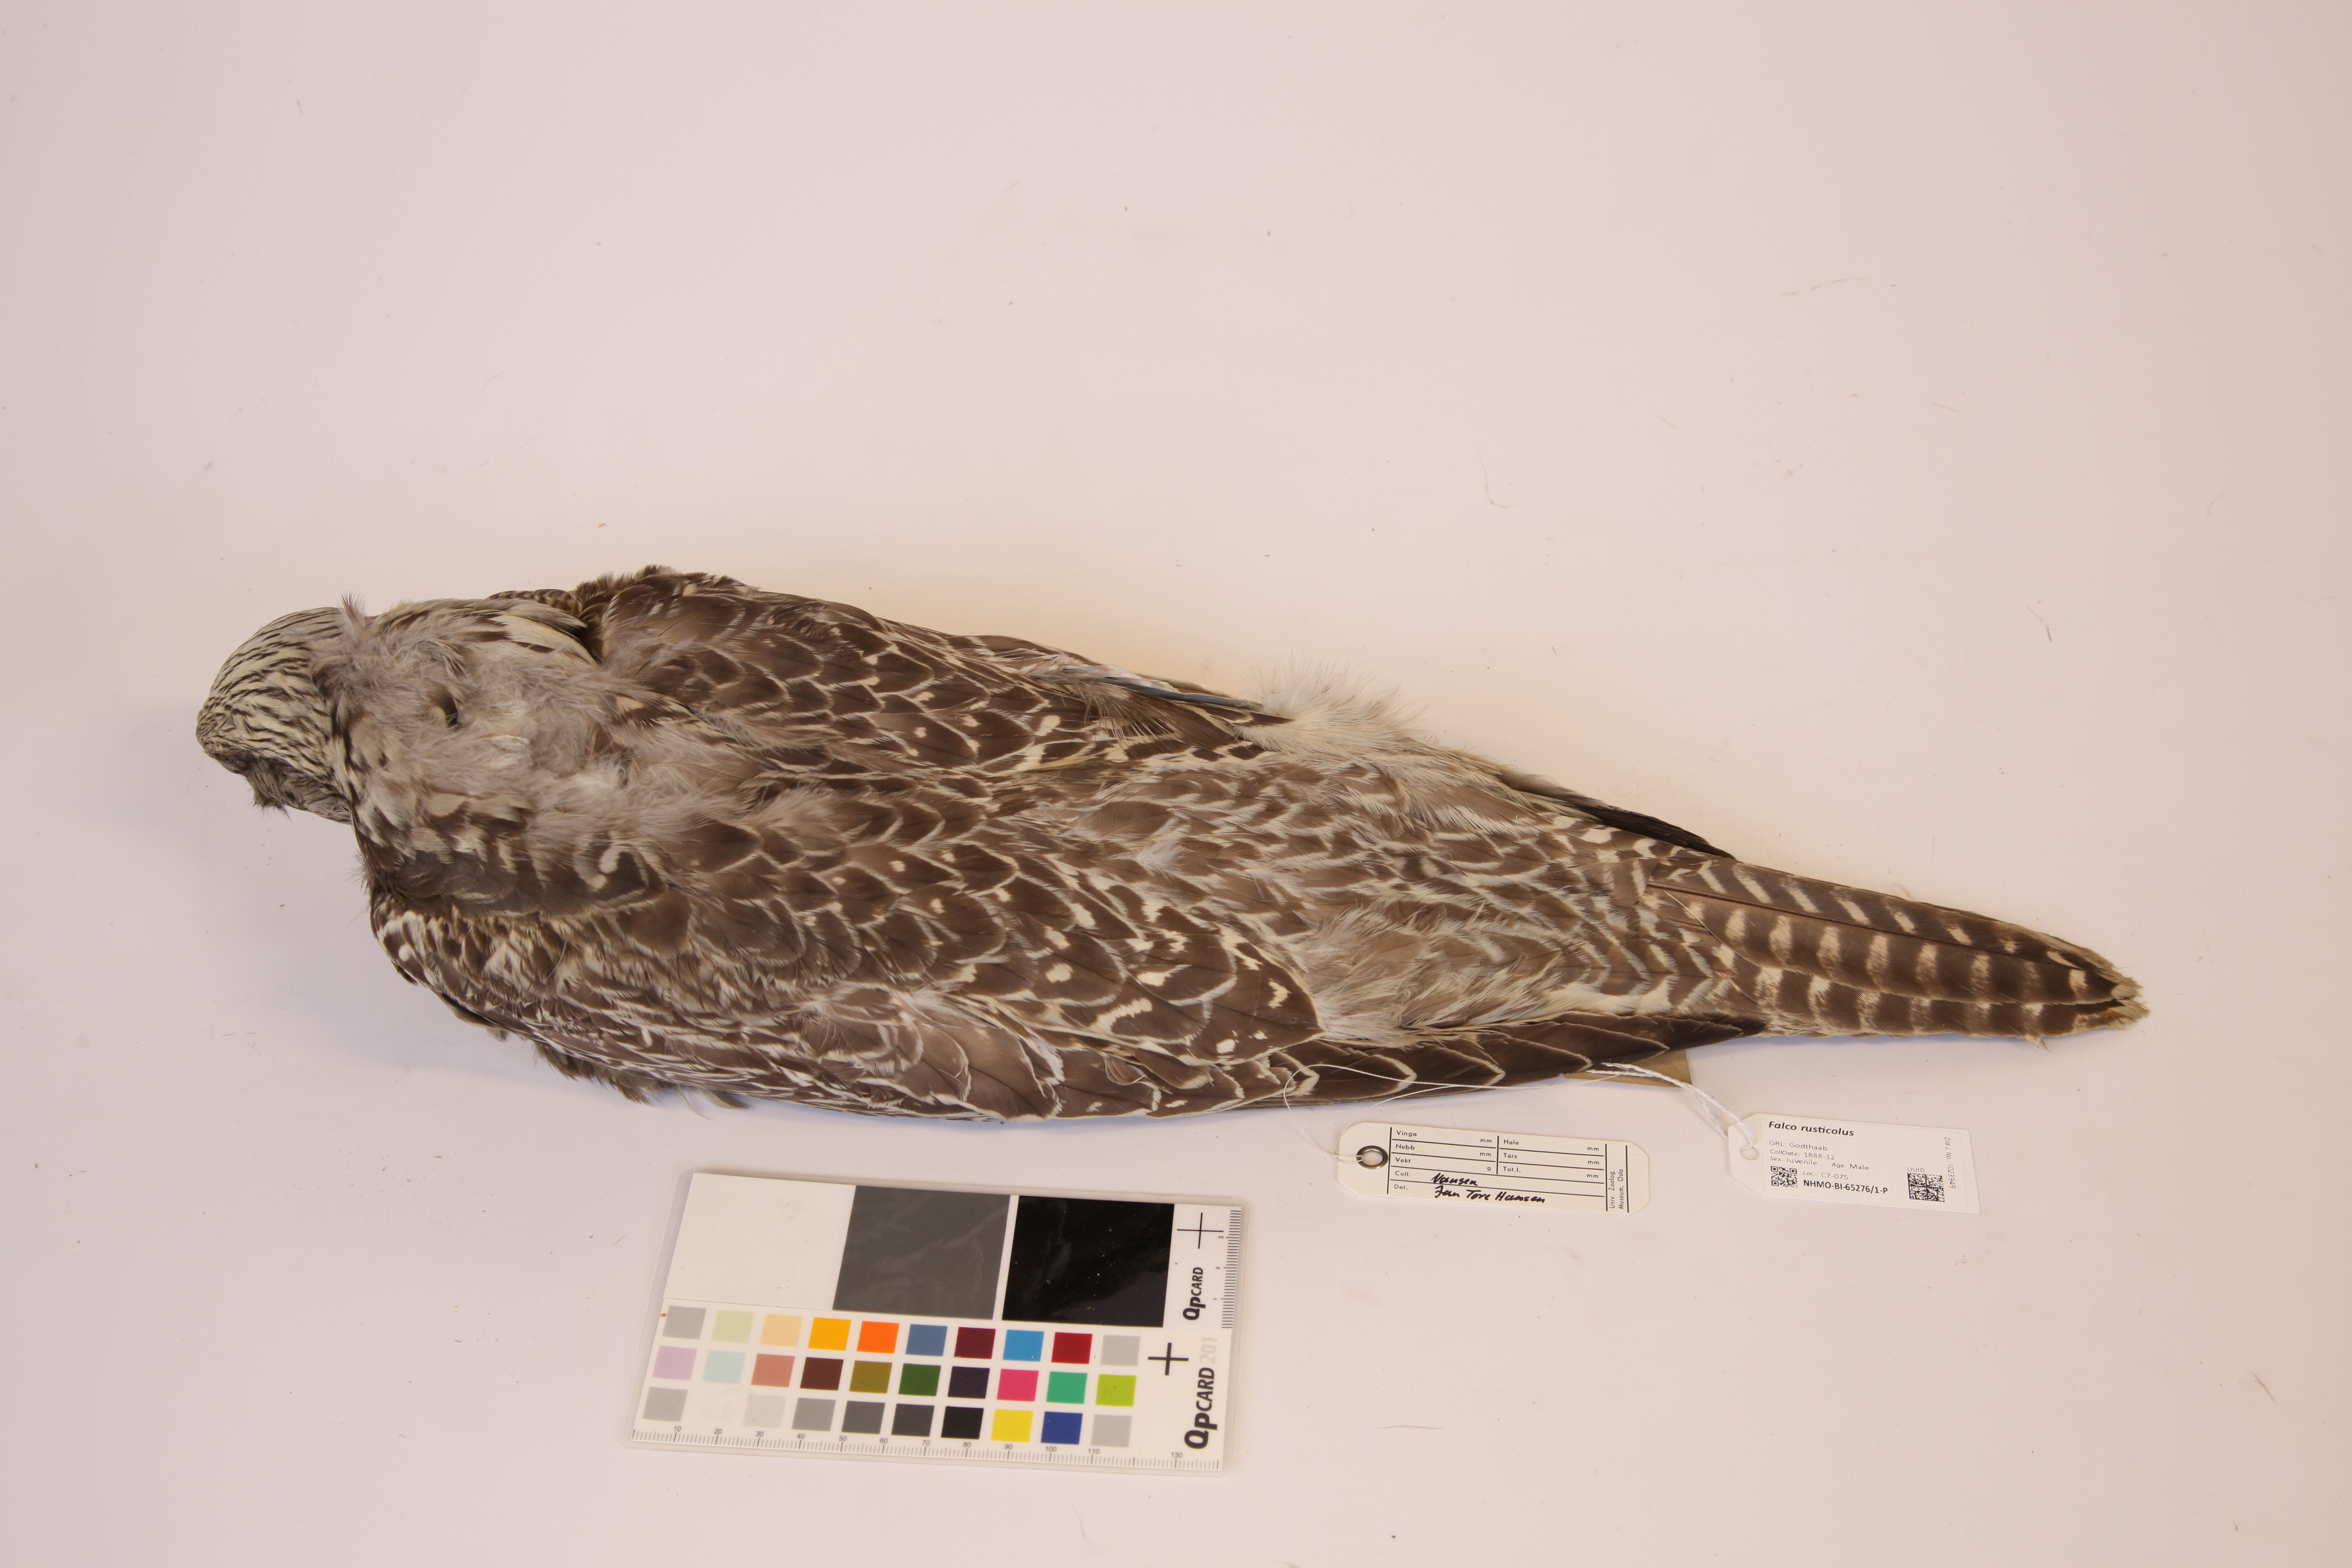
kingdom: Animalia
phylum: Chordata
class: Aves
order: Falconiformes
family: Falconidae
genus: Falco
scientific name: Falco rusticolus
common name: Gyrfalcon
